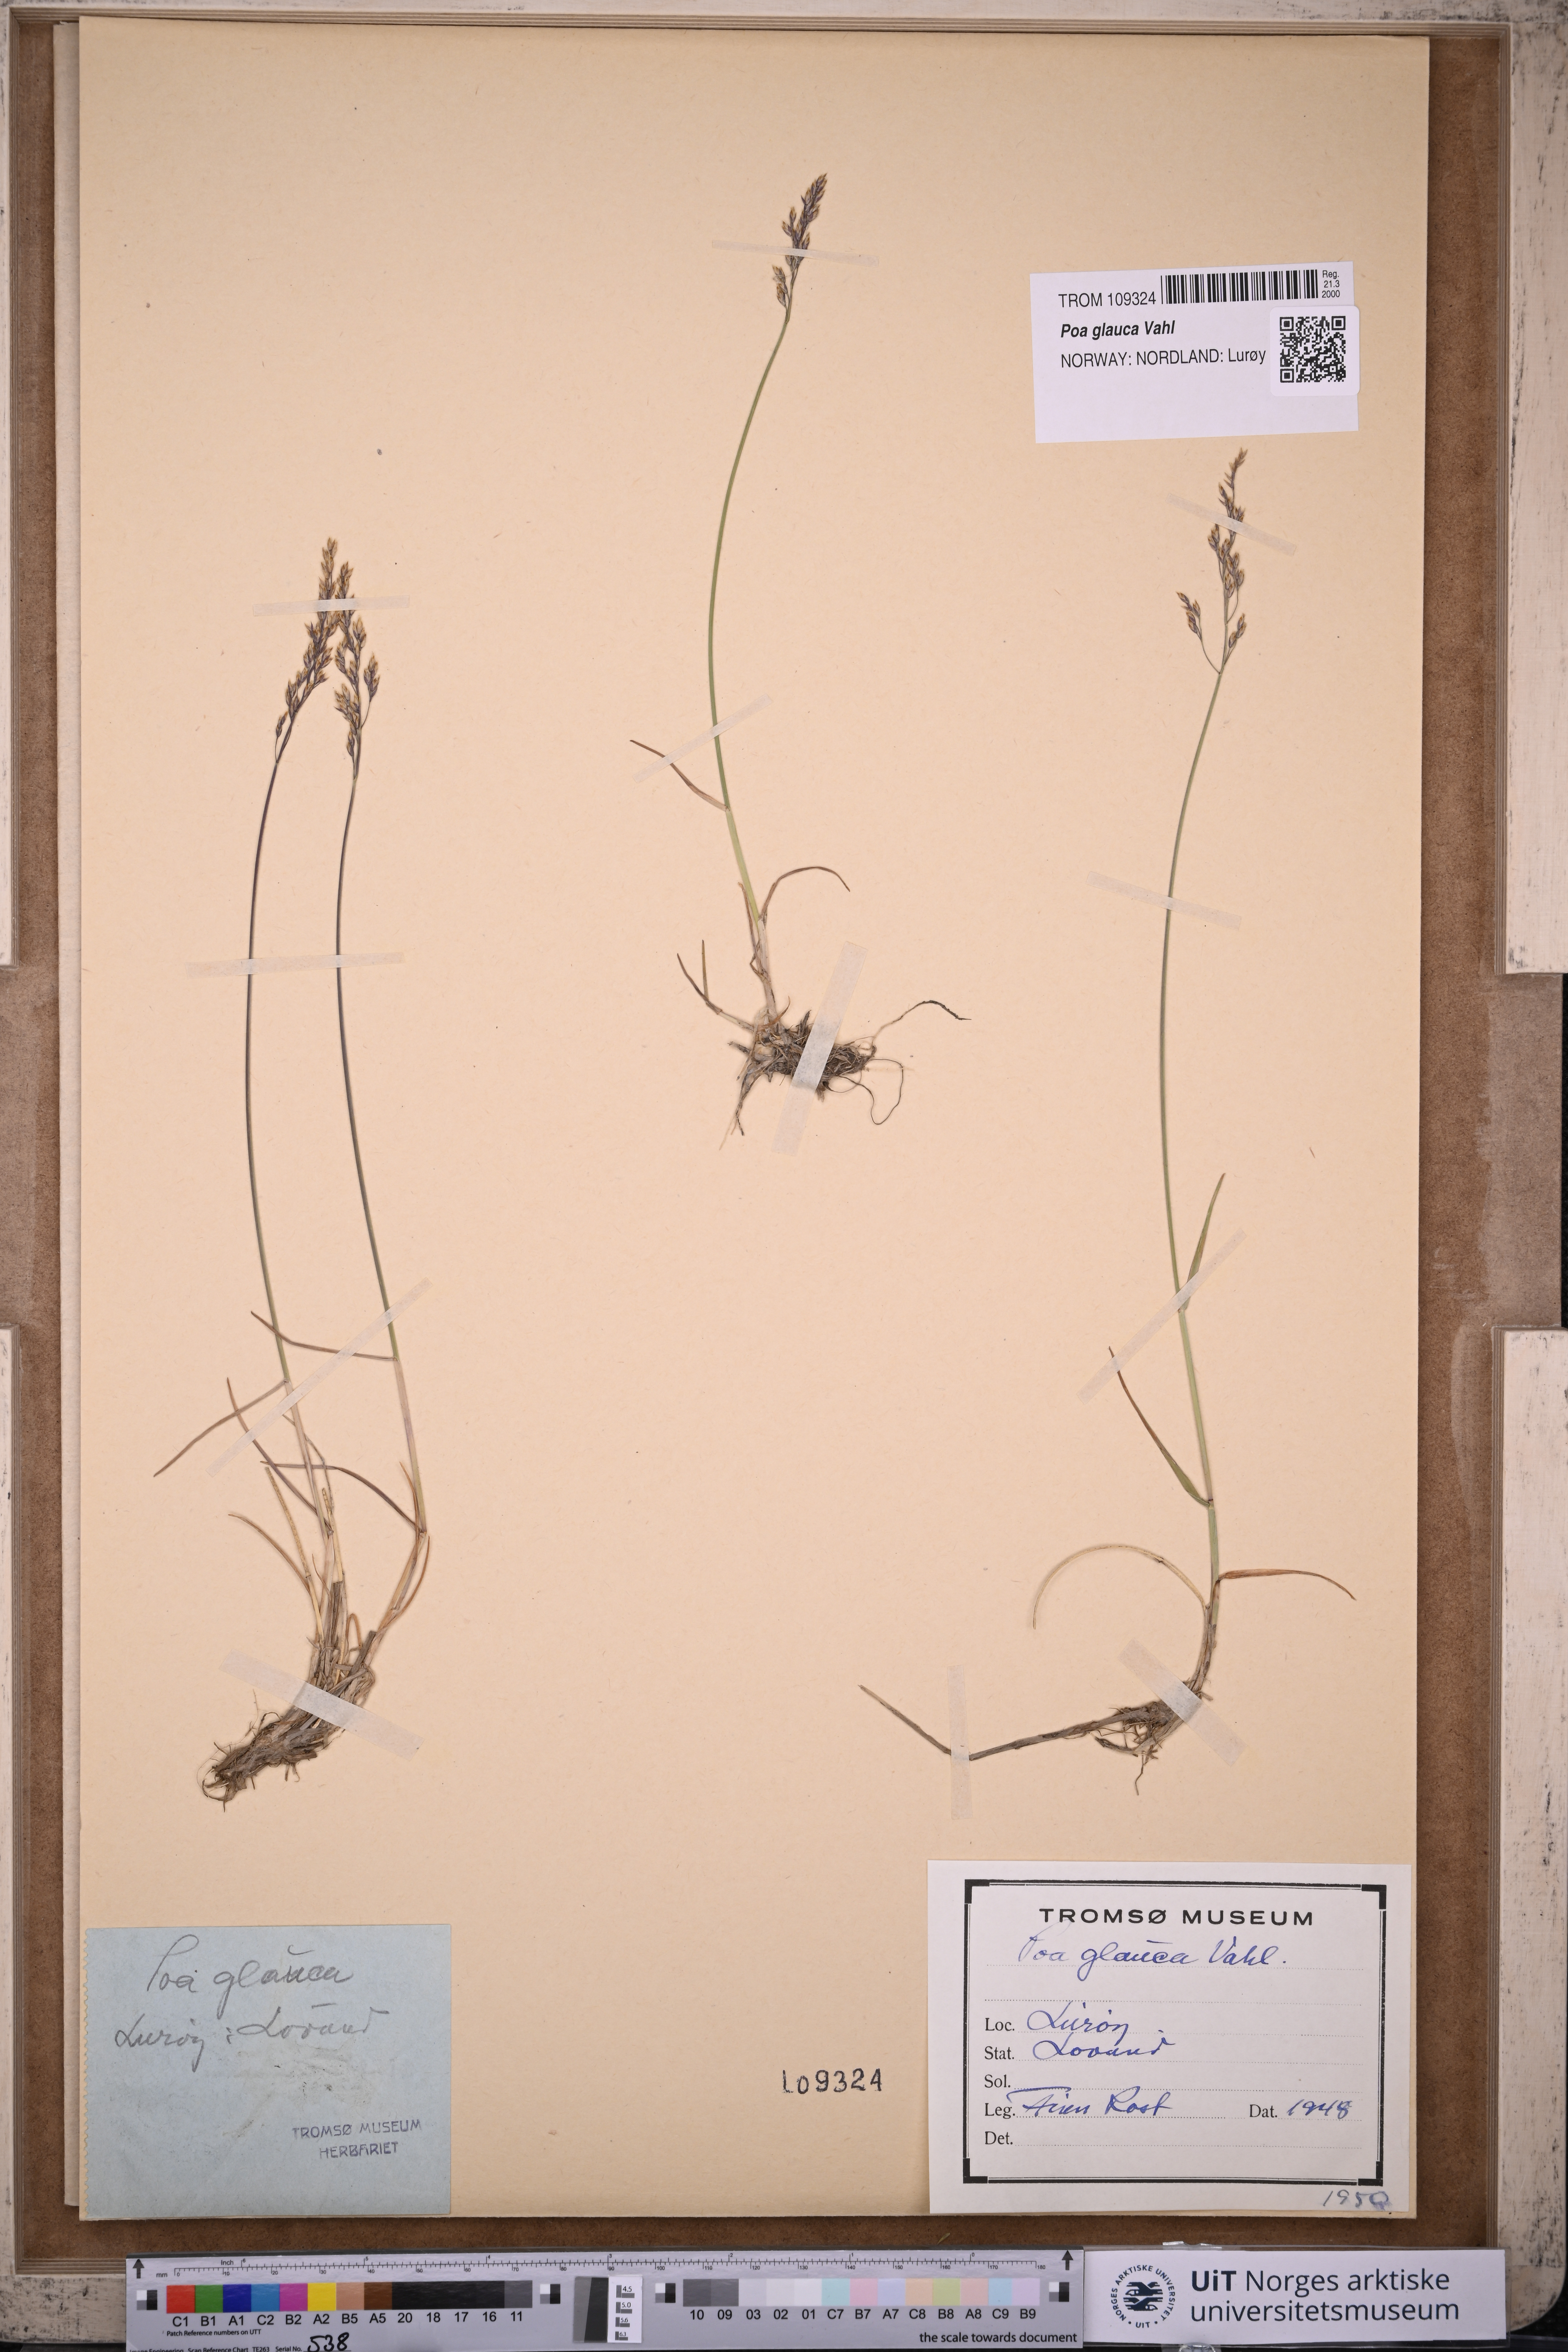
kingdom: Plantae
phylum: Tracheophyta
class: Liliopsida
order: Poales
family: Poaceae
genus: Poa
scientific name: Poa glauca
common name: Glaucous bluegrass
